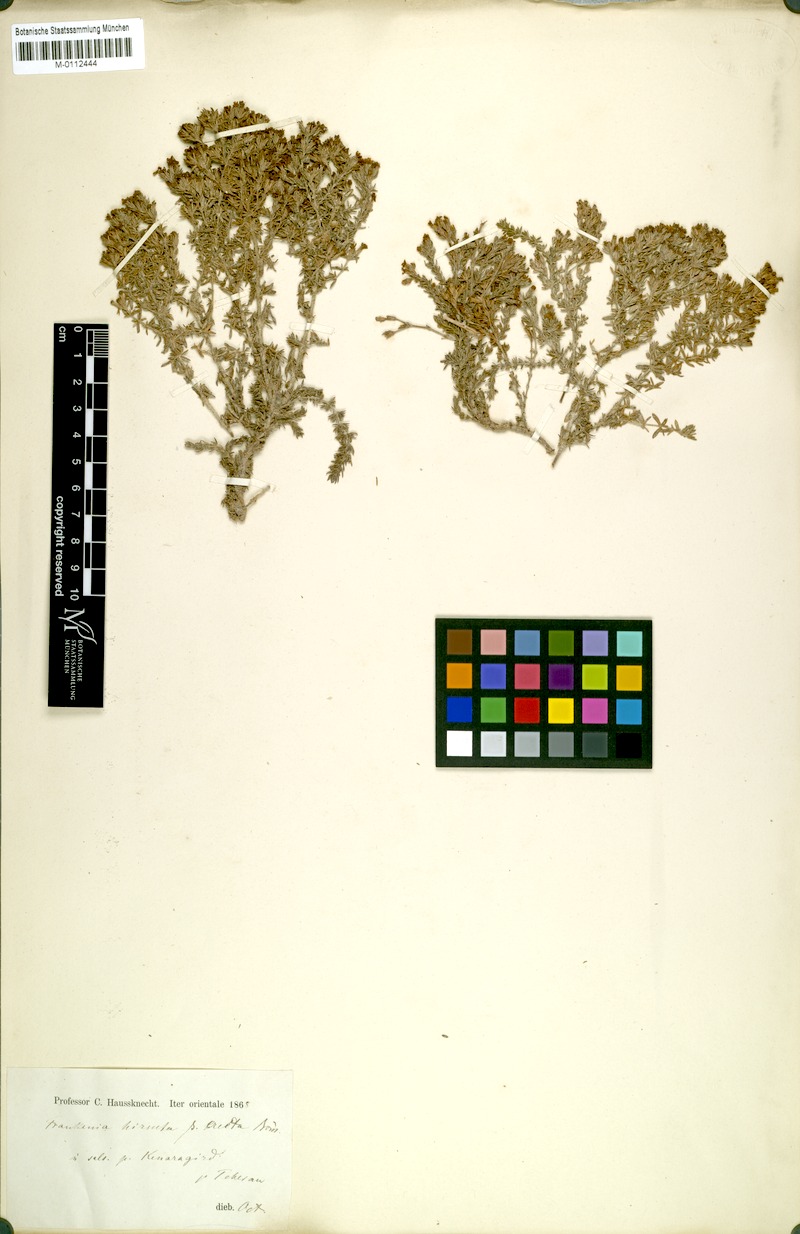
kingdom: Plantae
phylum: Tracheophyta
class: Magnoliopsida
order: Caryophyllales
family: Frankeniaceae
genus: Frankenia
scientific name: Frankenia hirsuta
